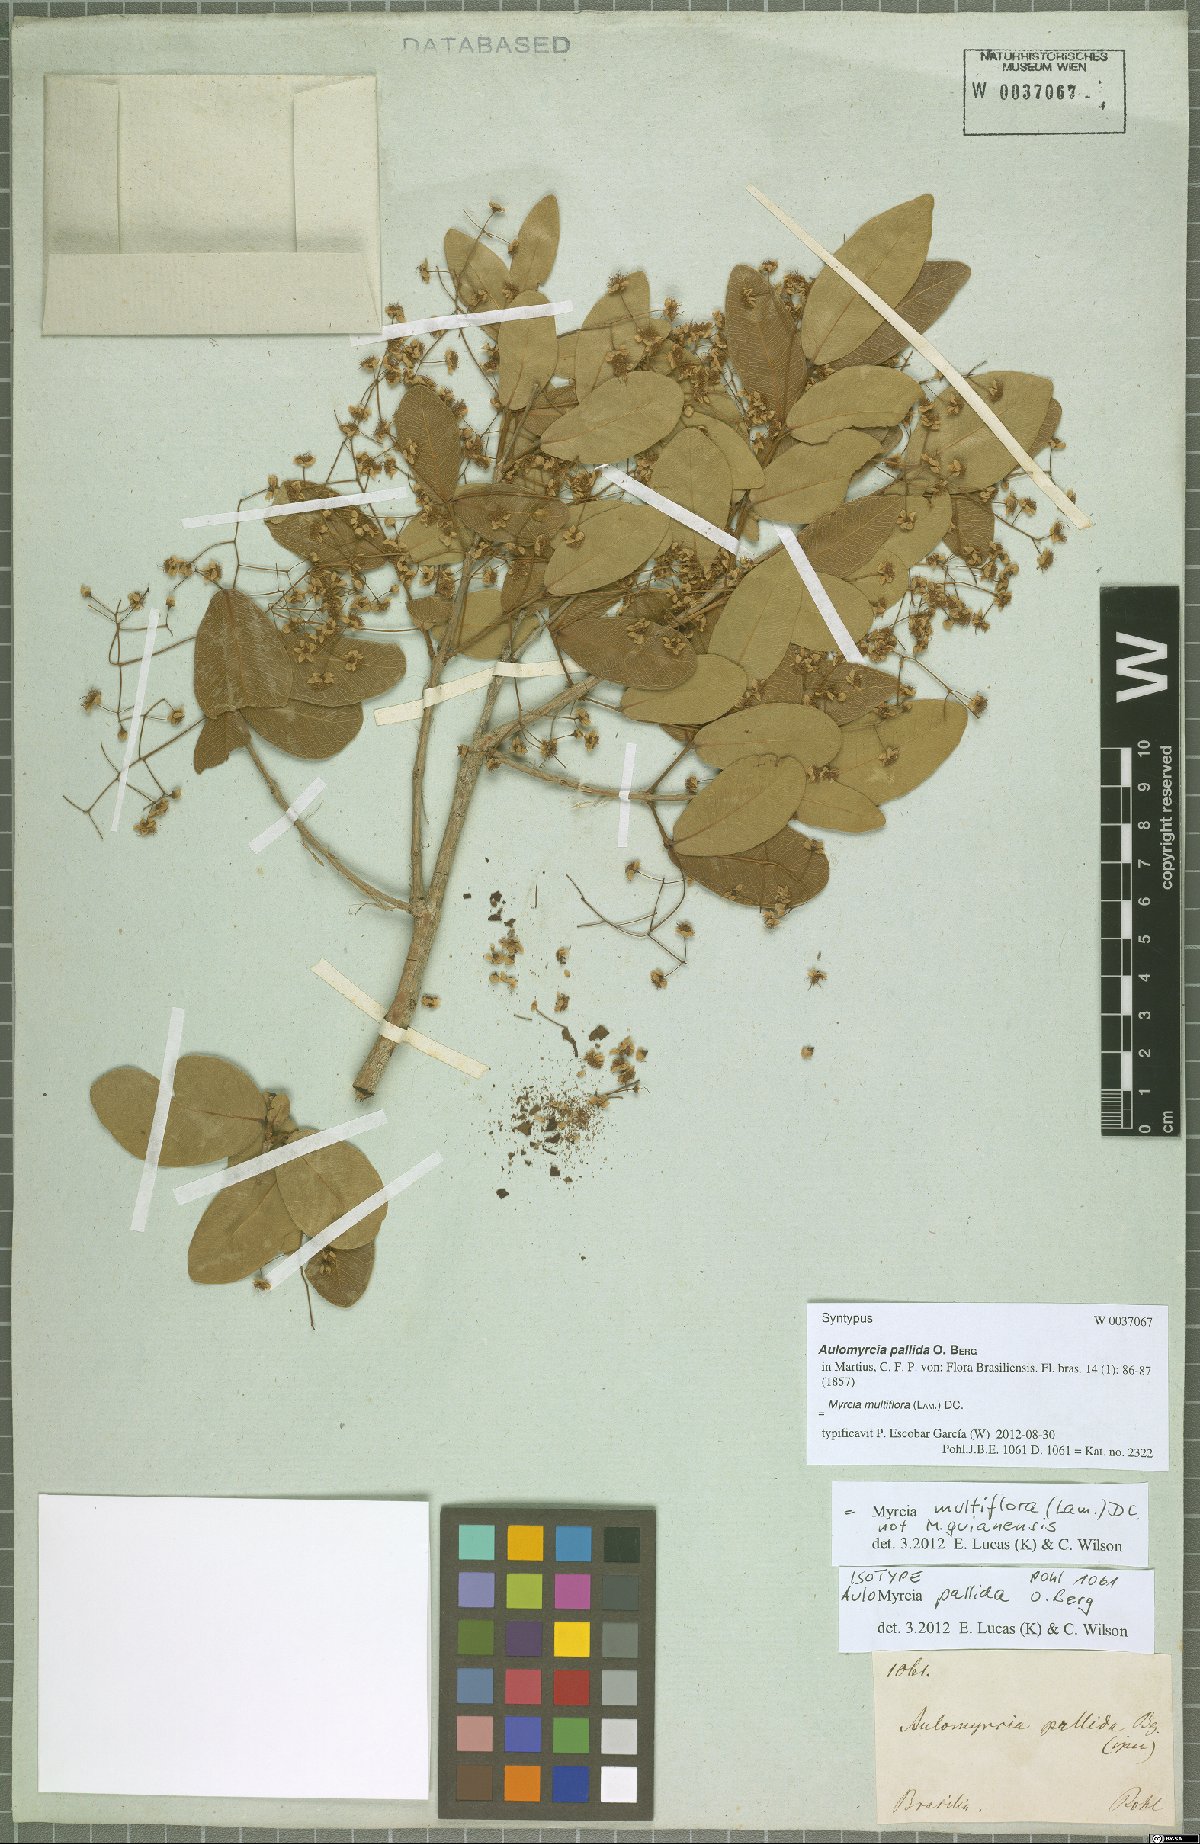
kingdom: Plantae
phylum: Tracheophyta
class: Magnoliopsida
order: Myrtales
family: Myrtaceae
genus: Myrcia
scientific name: Myrcia multiflora
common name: Pedra hume
